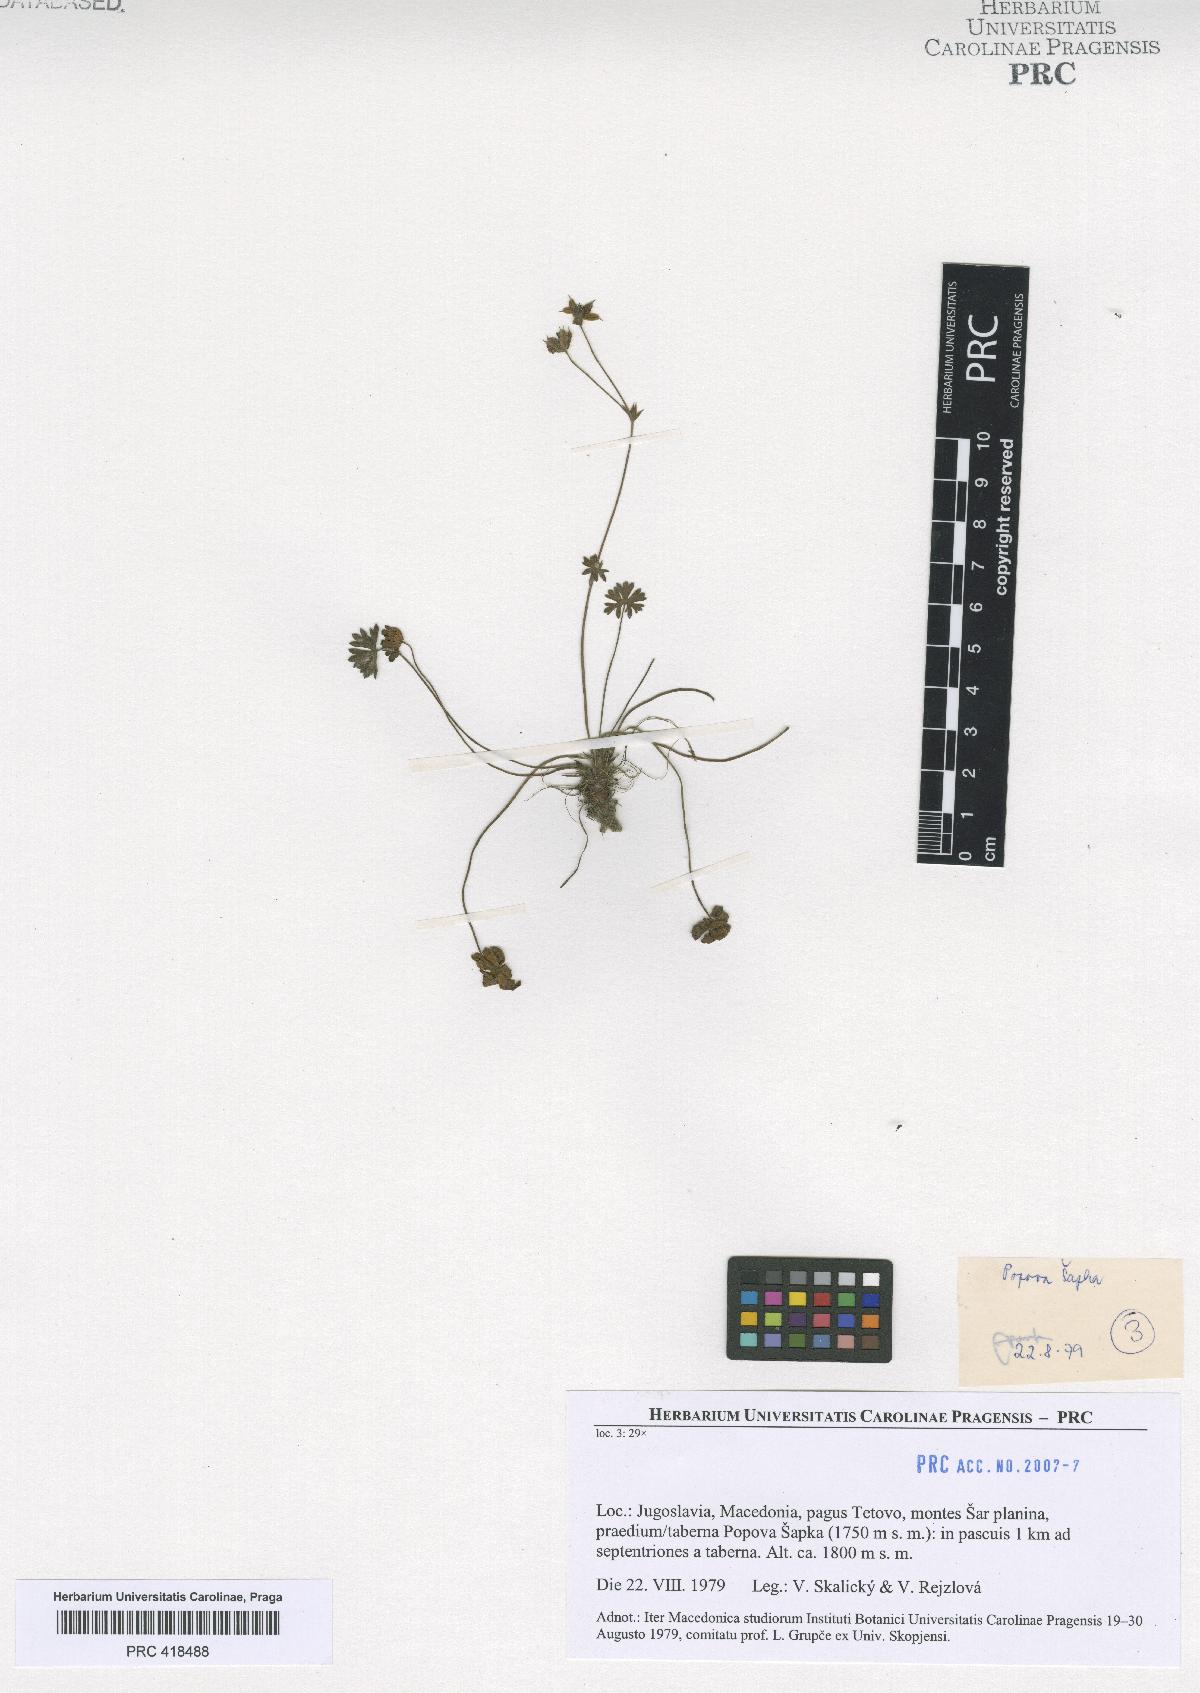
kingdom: Plantae
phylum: Tracheophyta
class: Magnoliopsida
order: Geraniales
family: Geraniaceae
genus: Geranium
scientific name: Geranium subcaulescens
